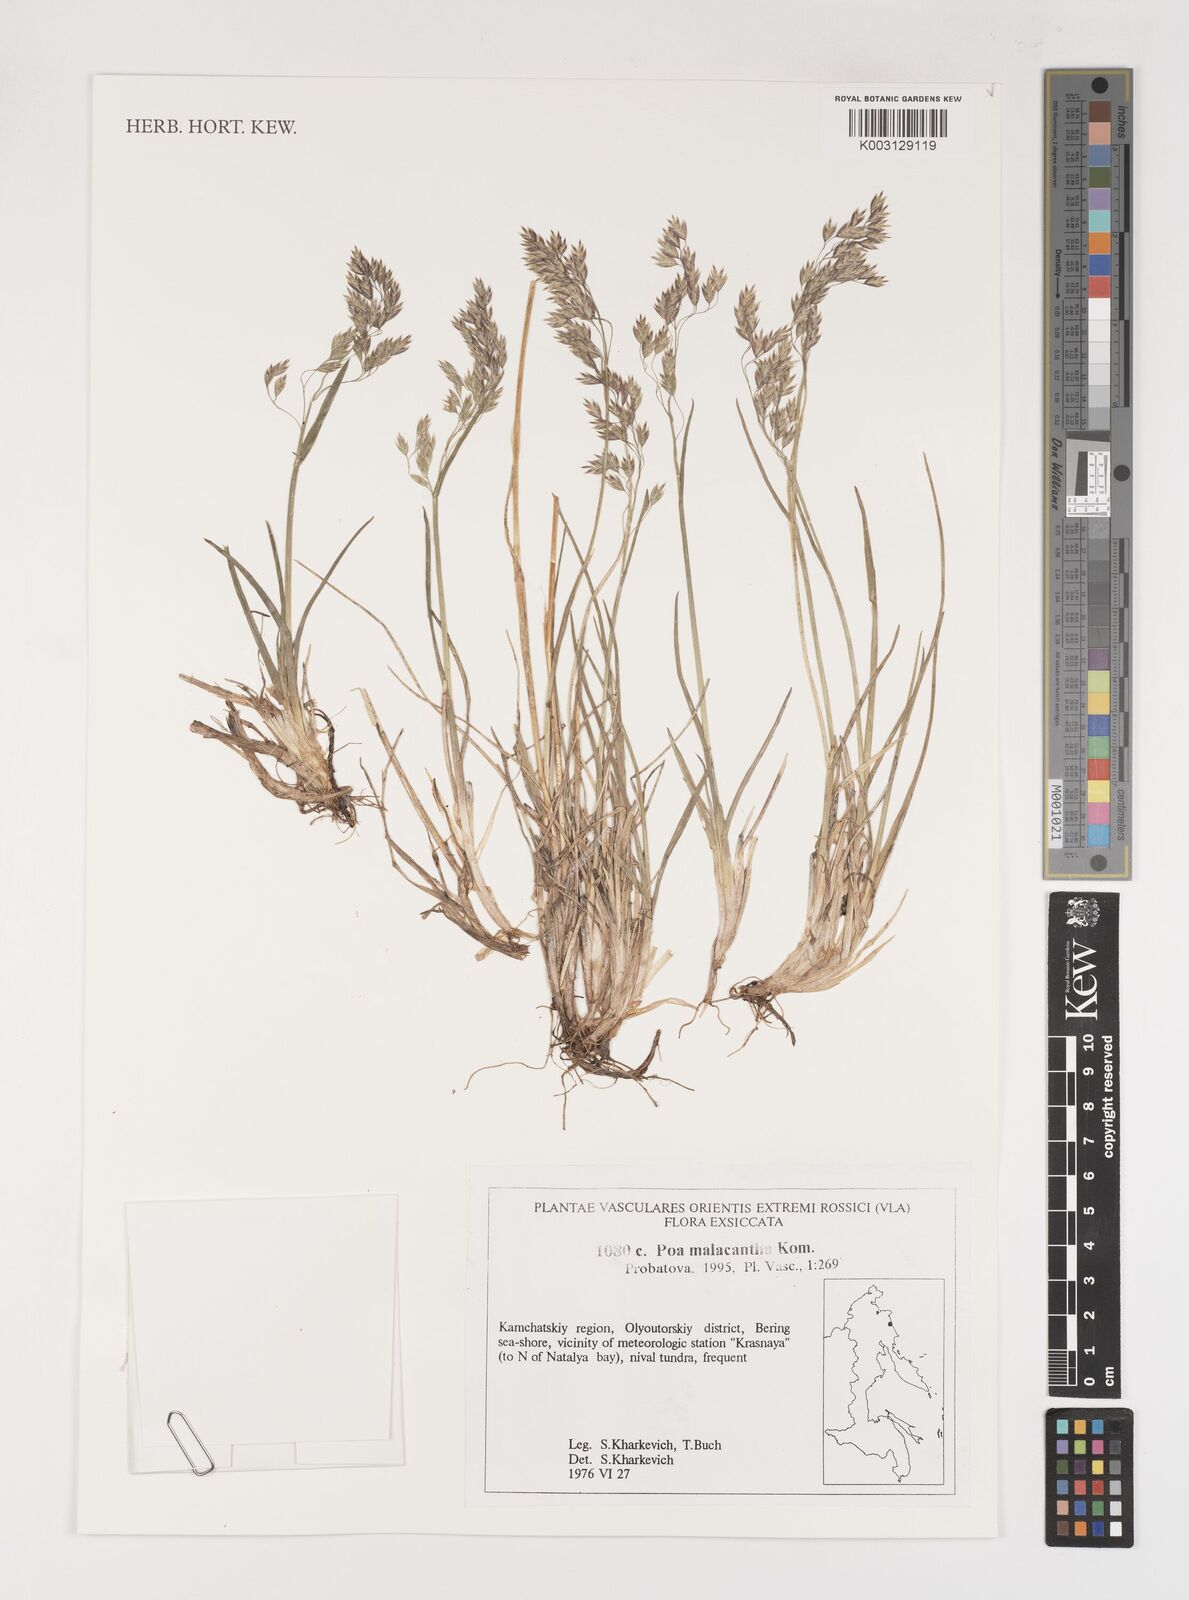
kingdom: Plantae
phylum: Tracheophyta
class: Liliopsida
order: Poales
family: Poaceae
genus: Poa
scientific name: Poa arctica
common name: Arctic bluegrass
